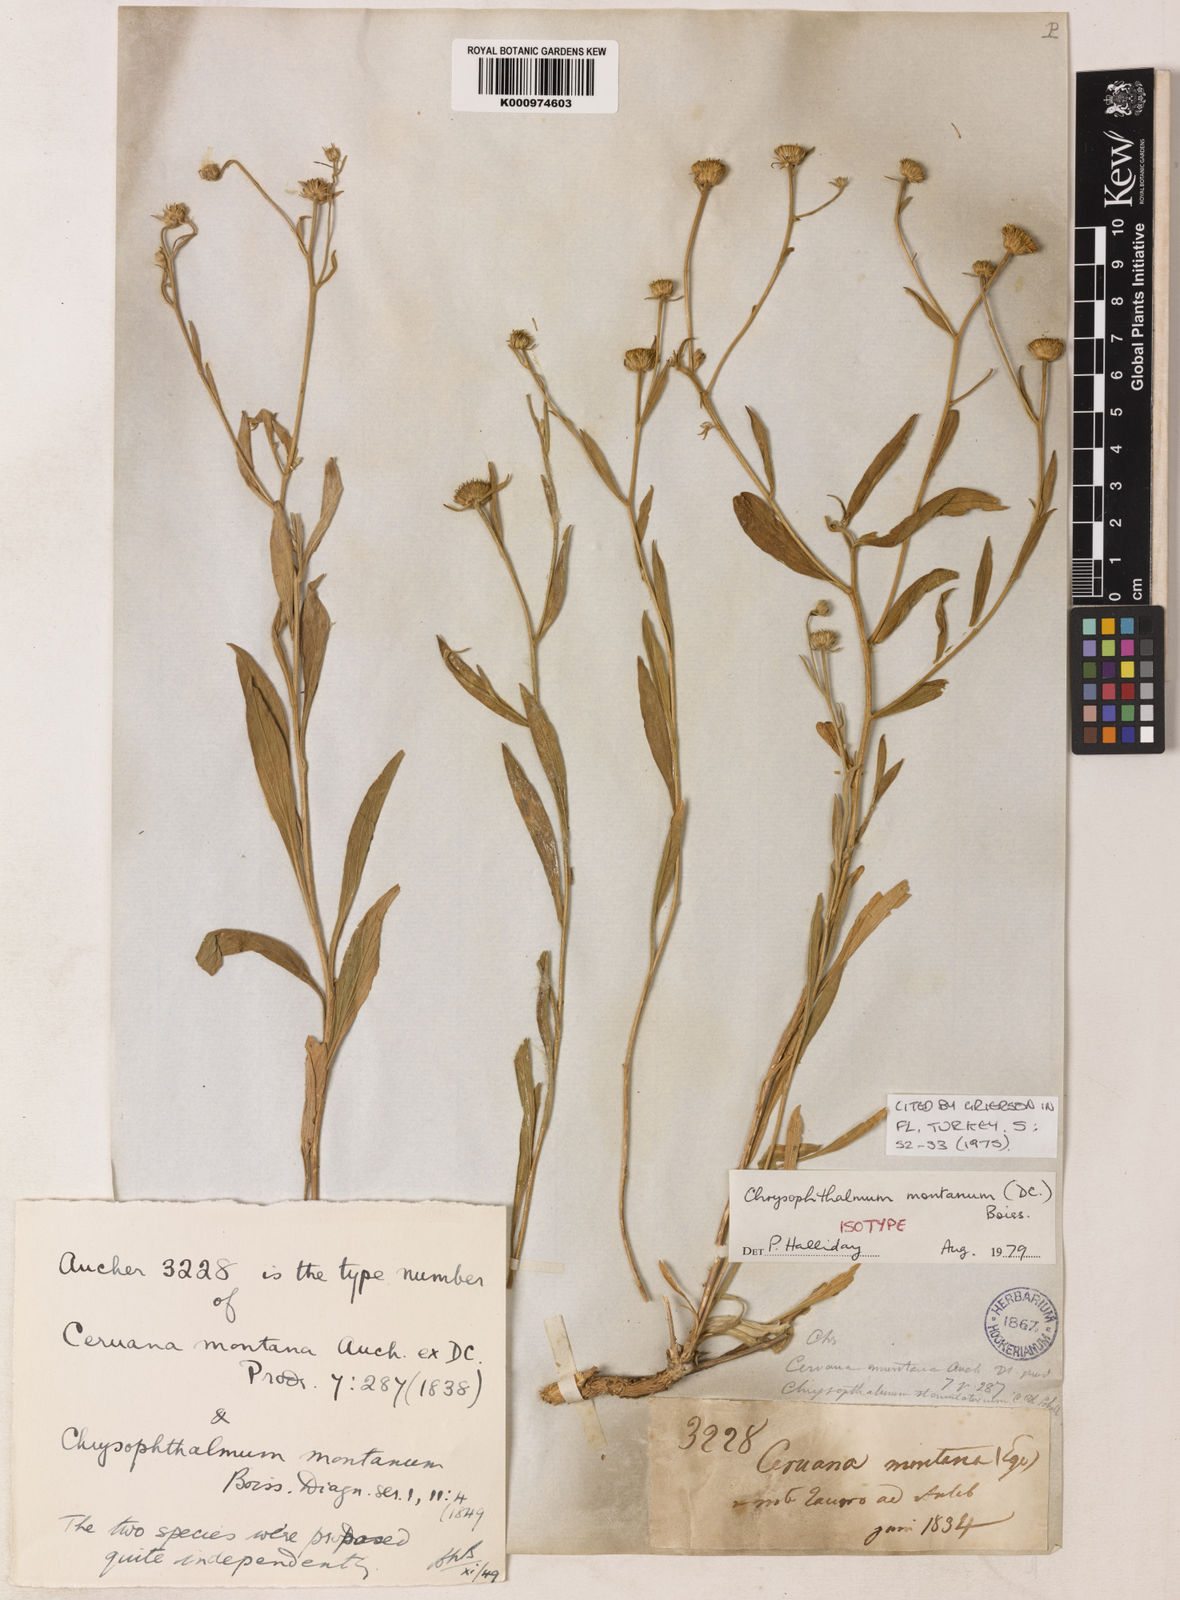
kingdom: Plantae
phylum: Tracheophyta
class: Magnoliopsida
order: Asterales
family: Asteraceae
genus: Chrysophtalmum
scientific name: Chrysophtalmum montanum
